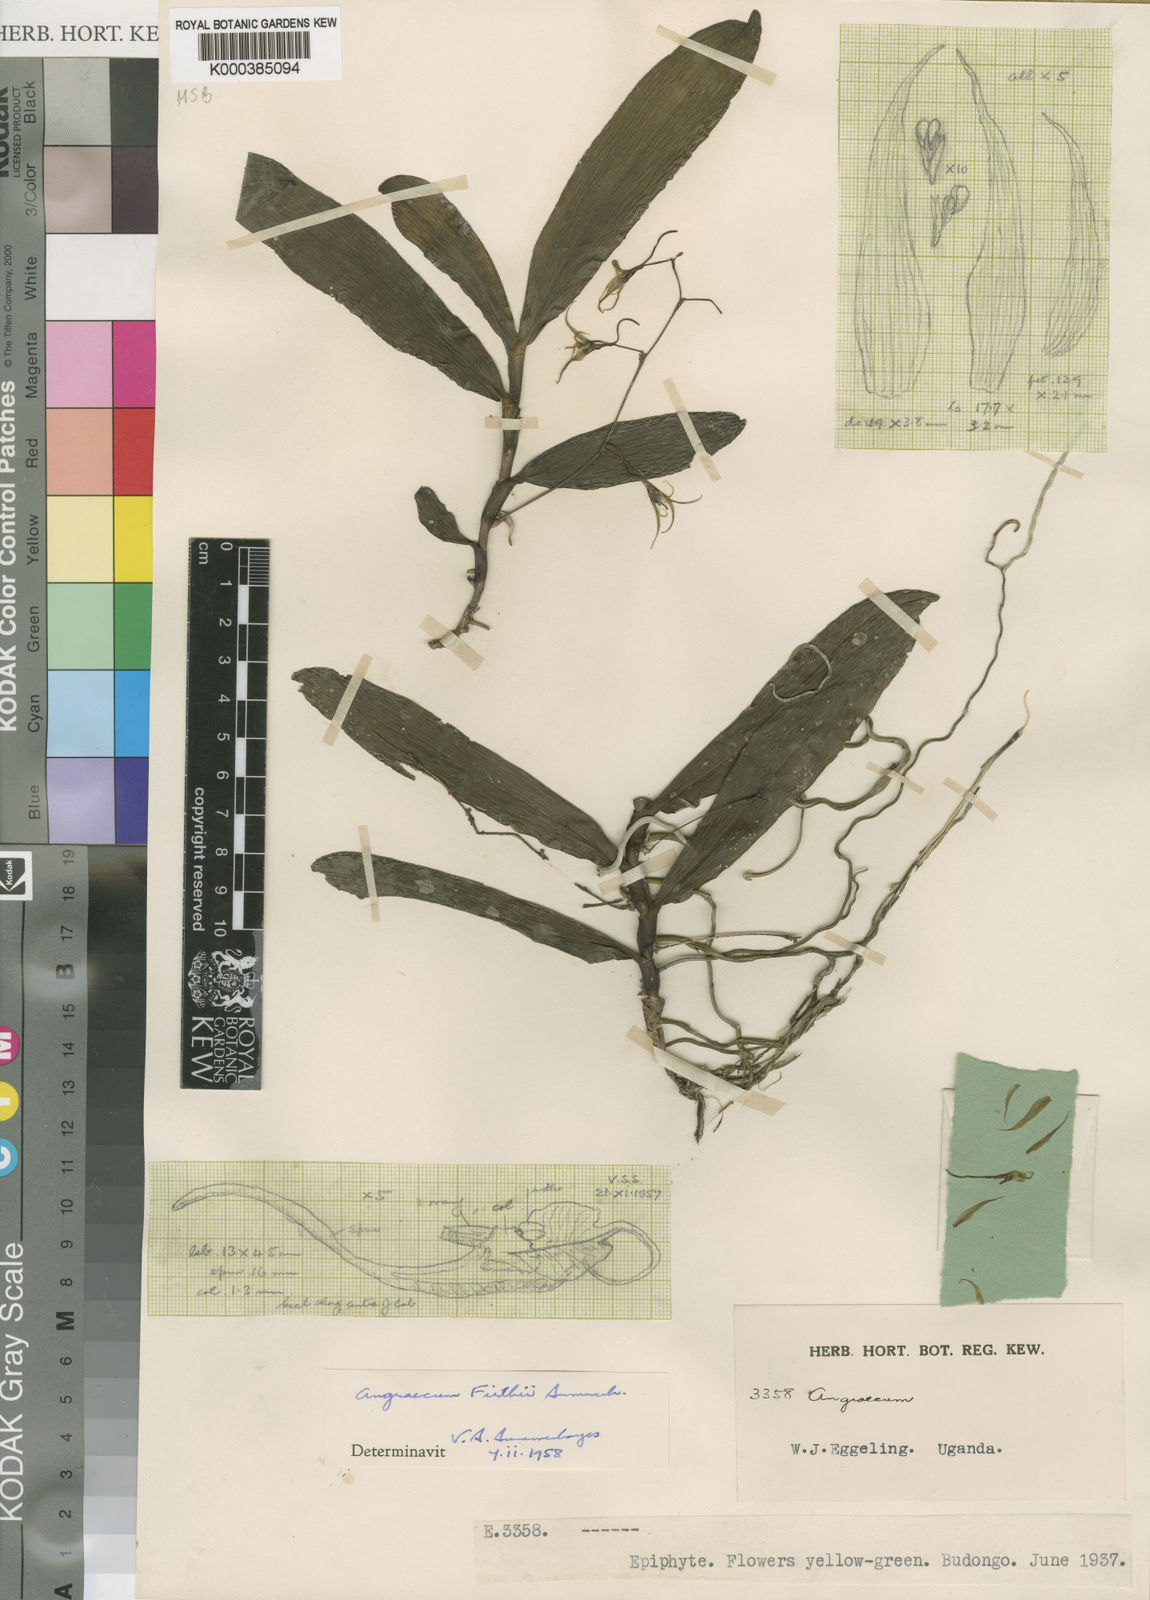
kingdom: Plantae
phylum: Tracheophyta
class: Liliopsida
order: Asparagales
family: Orchidaceae
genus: Angraecum
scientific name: Angraecum firthii
